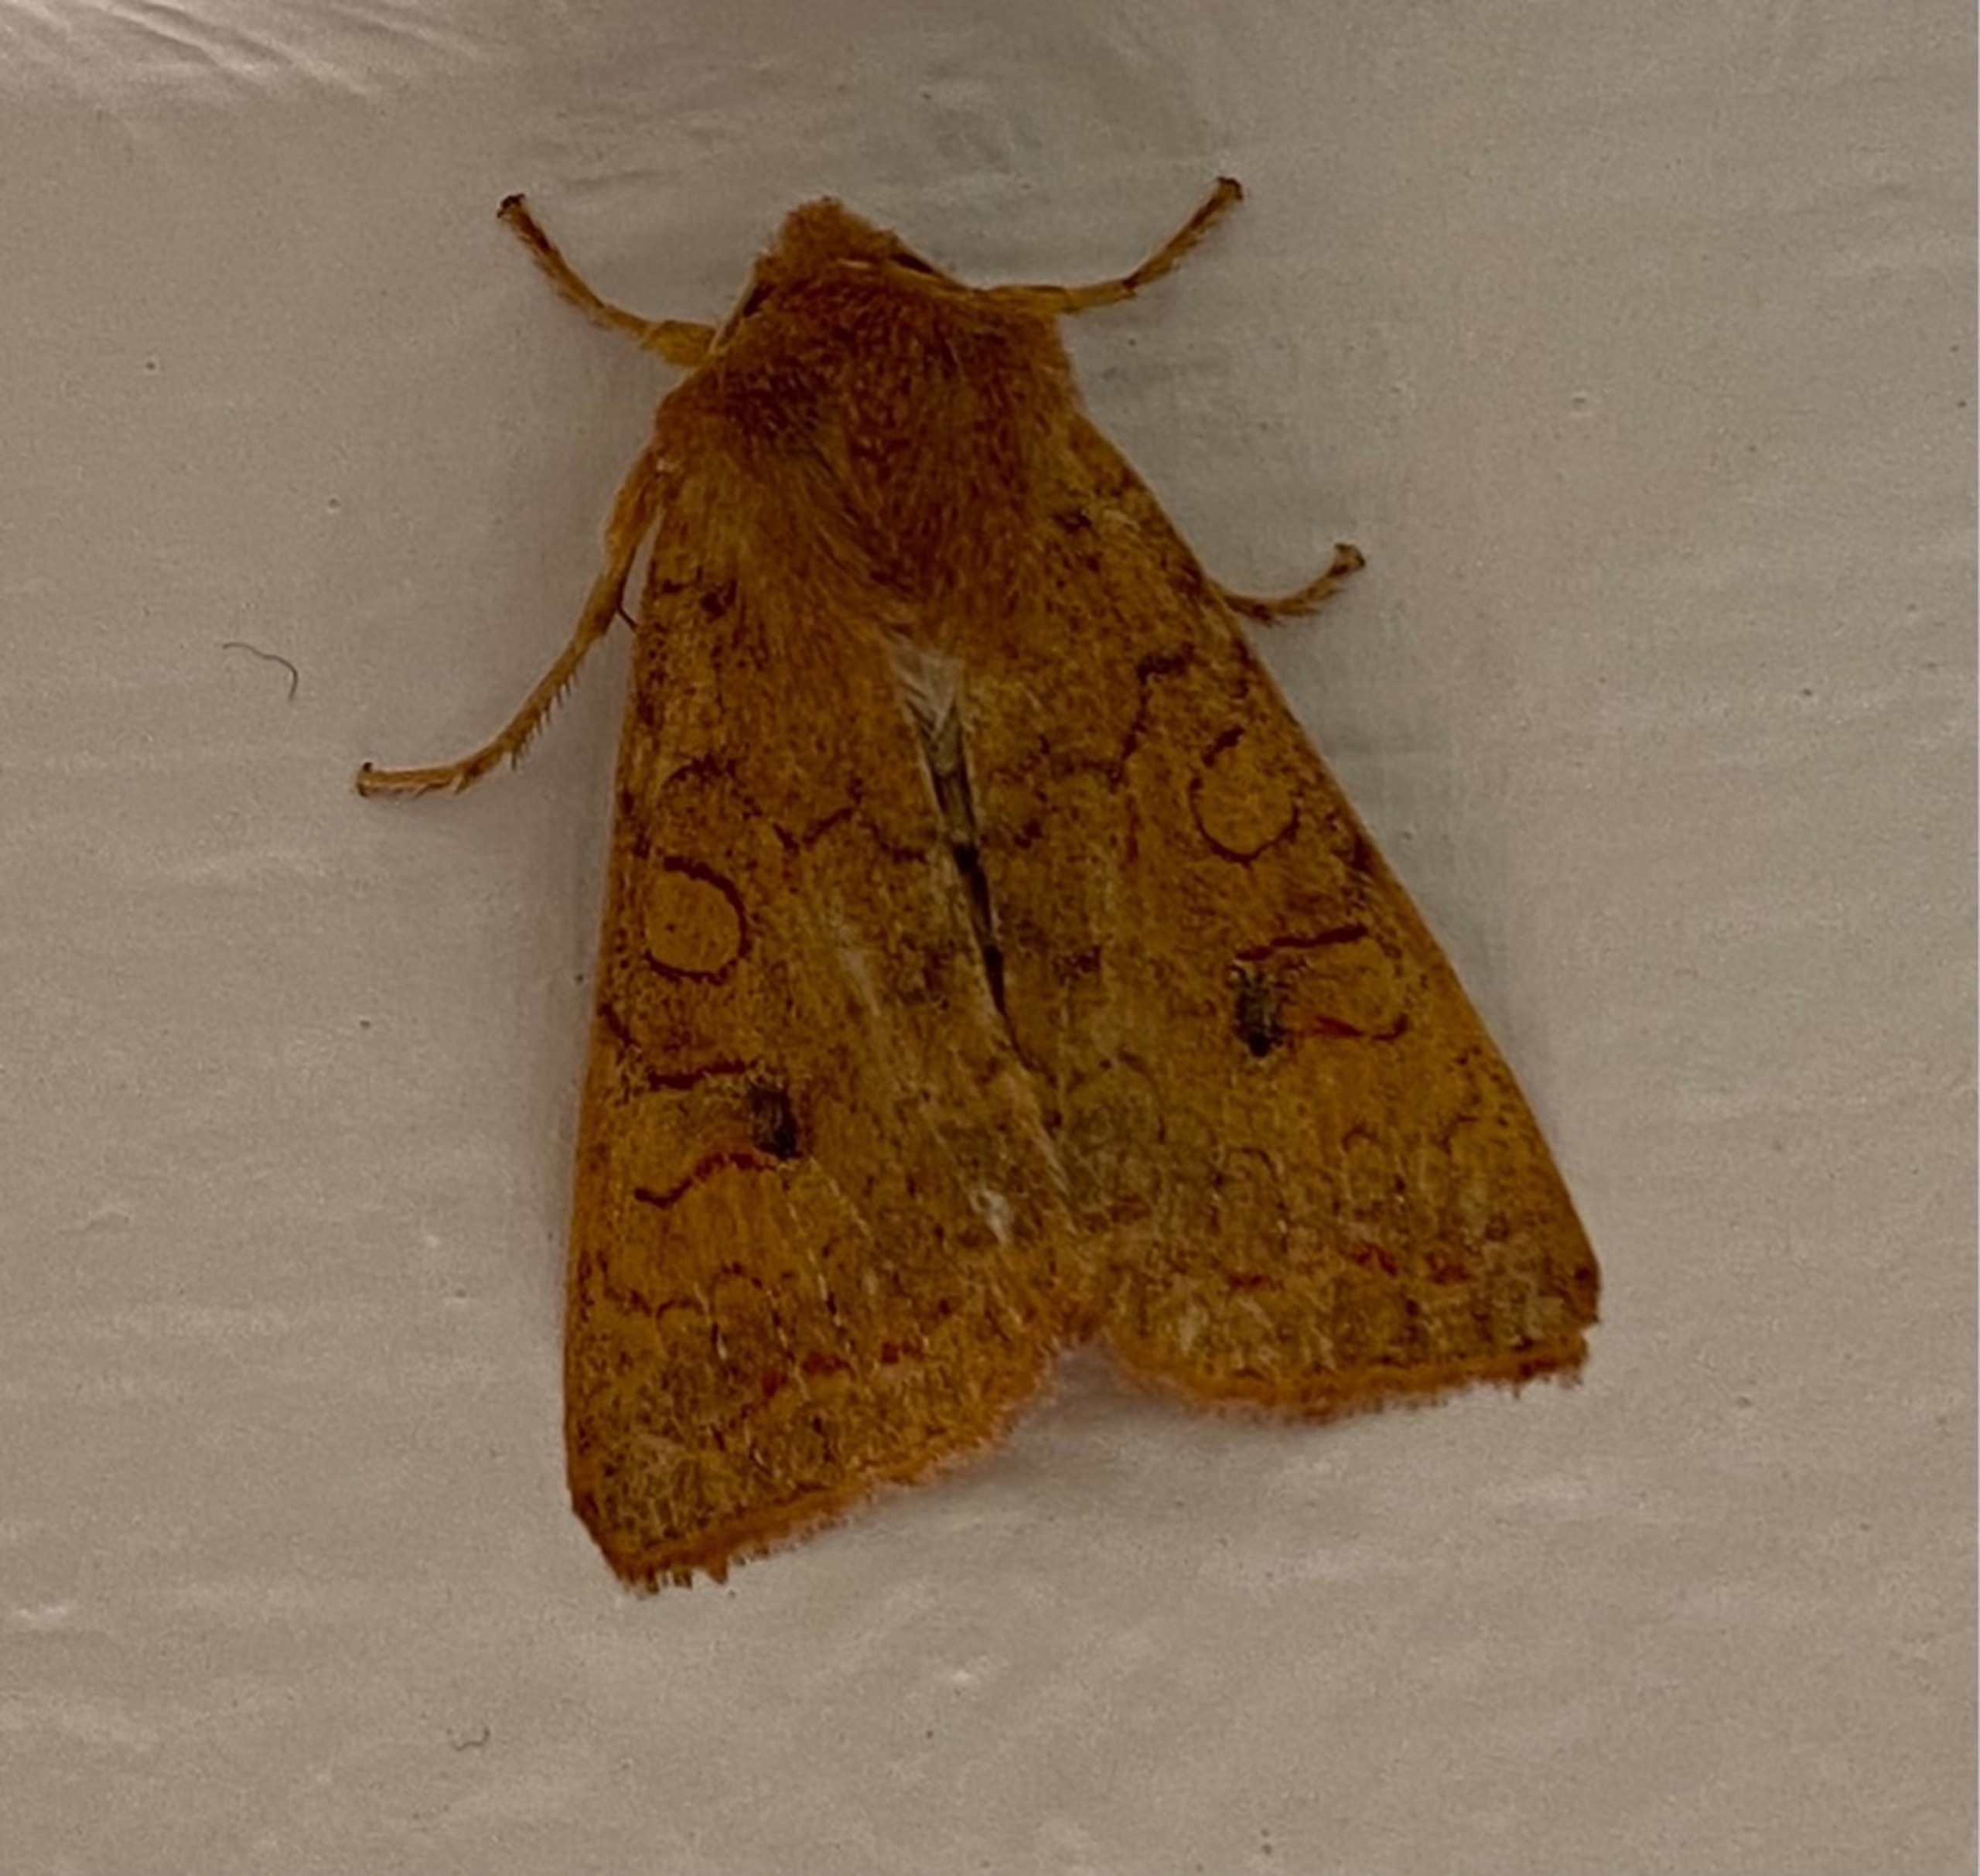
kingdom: Animalia
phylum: Arthropoda
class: Insecta
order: Lepidoptera
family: Noctuidae
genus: Sunira
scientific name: Sunira circellaris
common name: Cirkel-jordfarveugle
